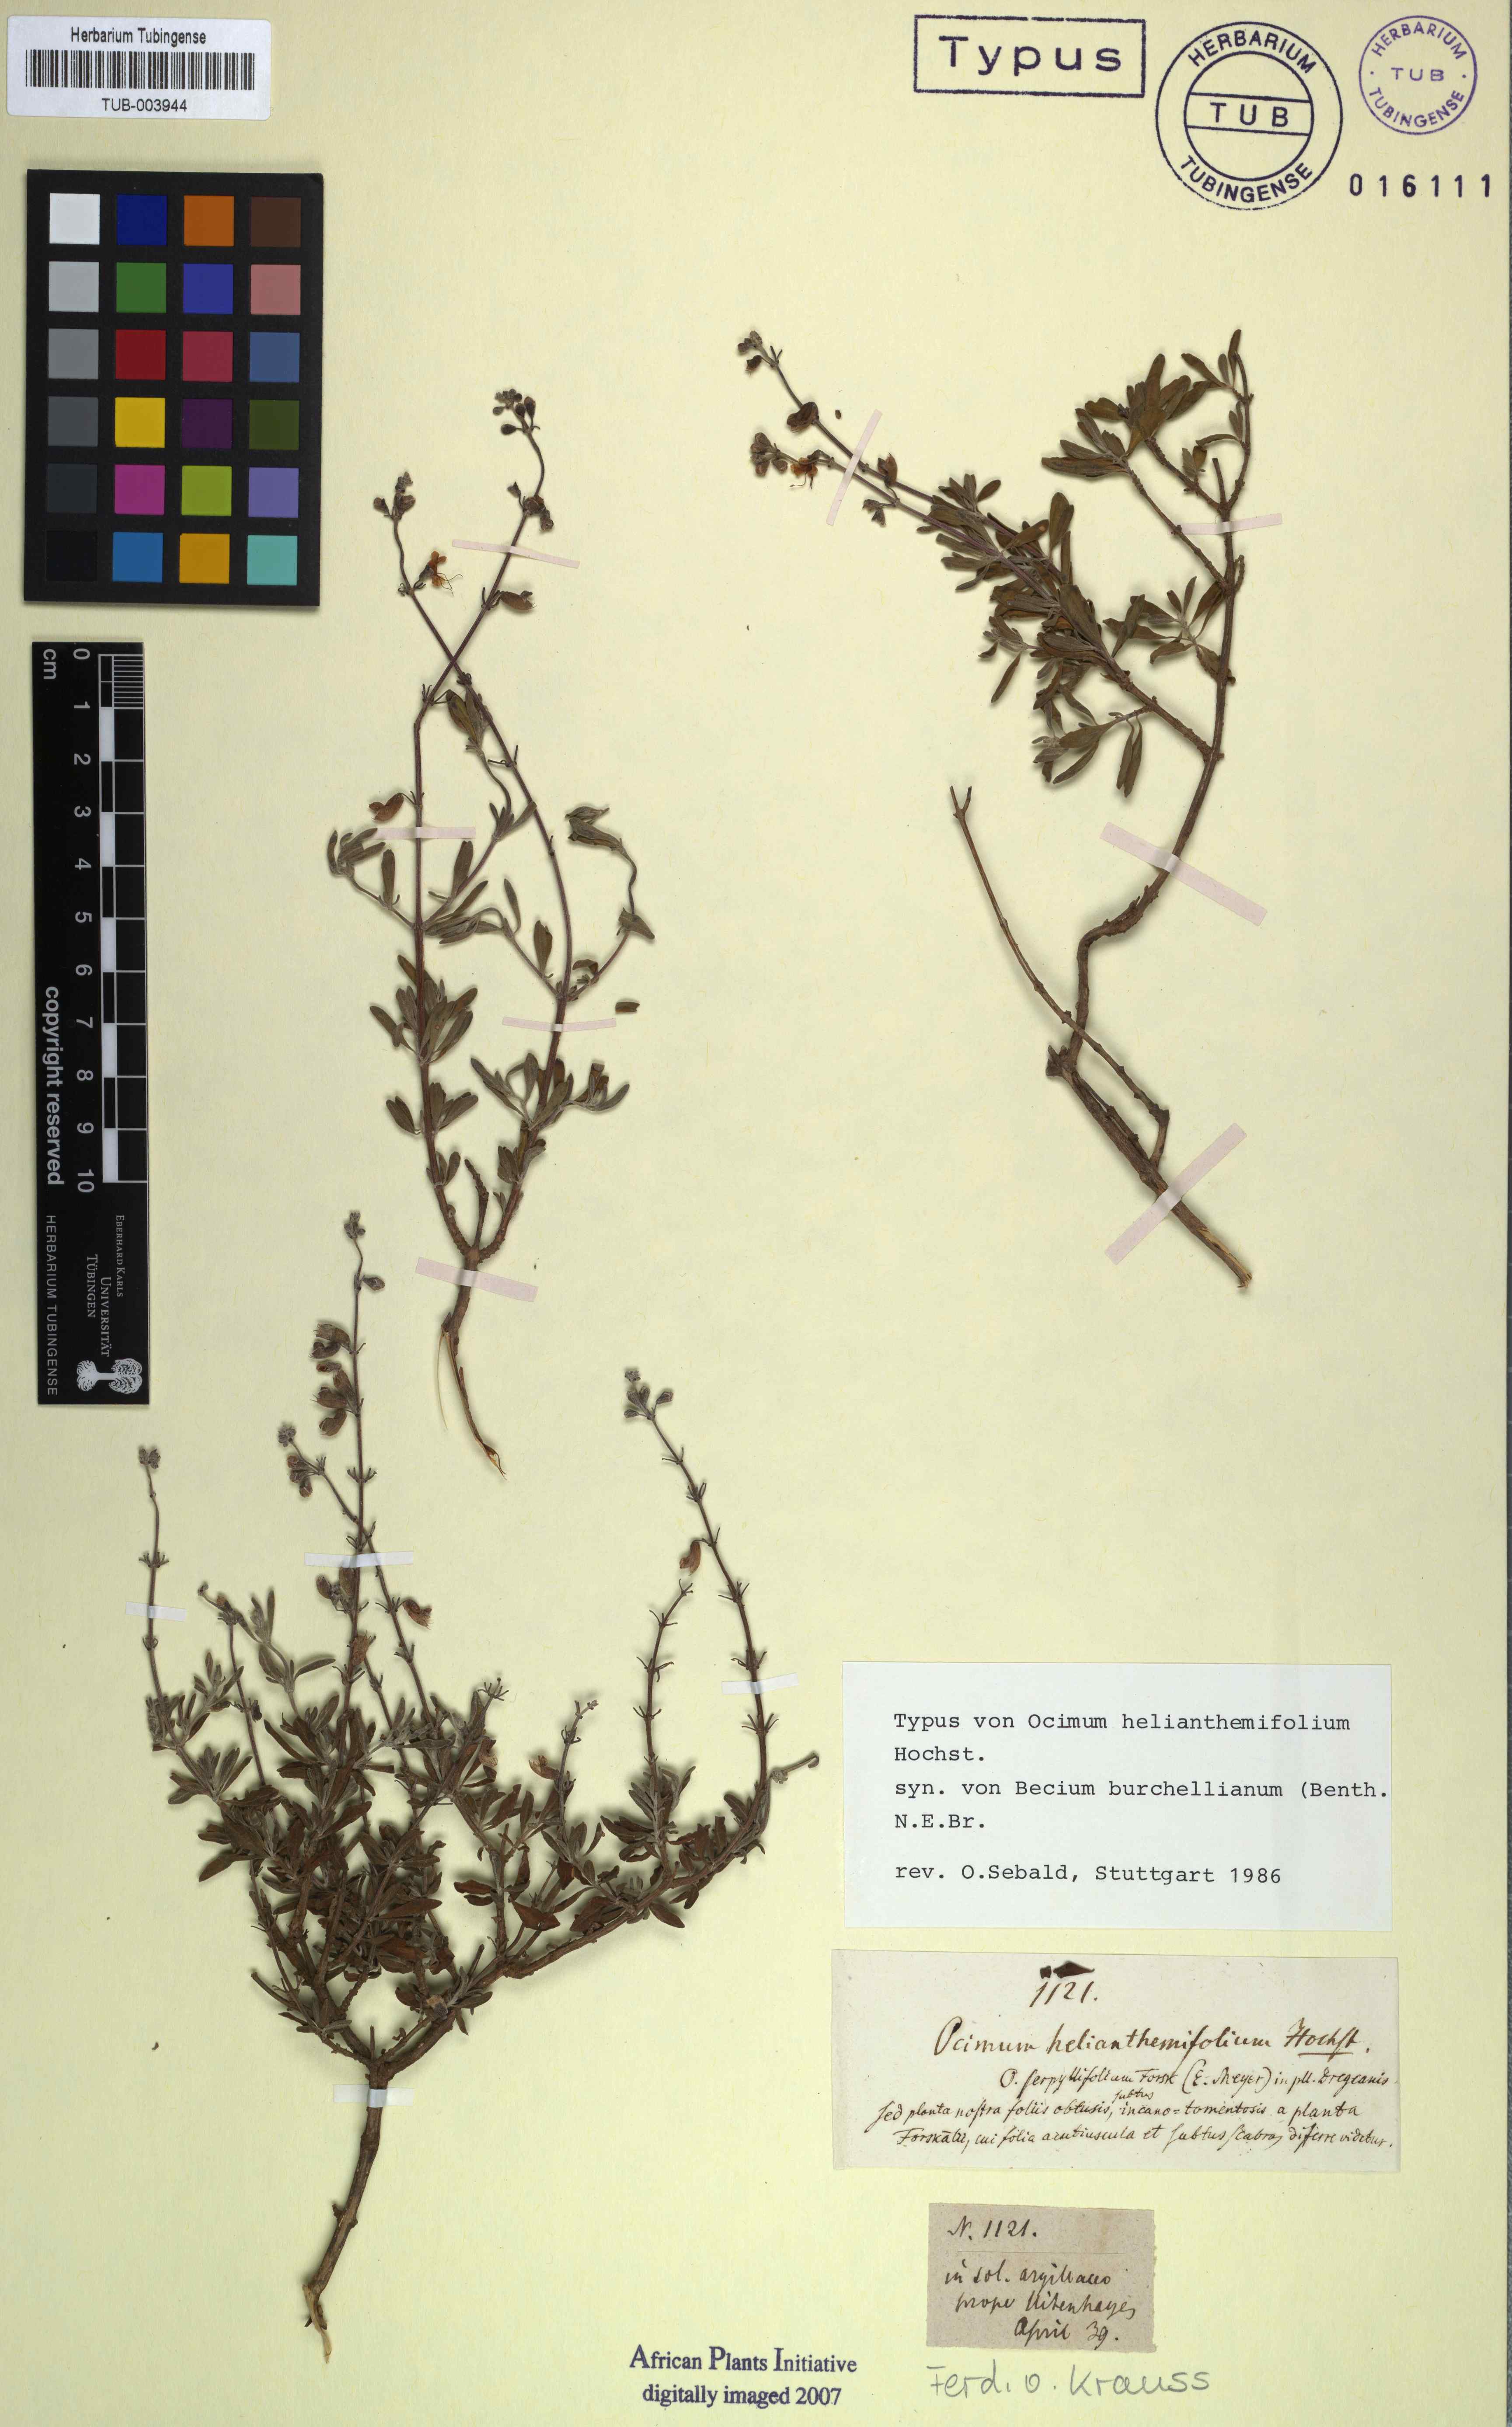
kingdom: Plantae
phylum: Tracheophyta
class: Magnoliopsida
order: Lamiales
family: Lamiaceae
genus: Ocimum
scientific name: Ocimum burchellianum
